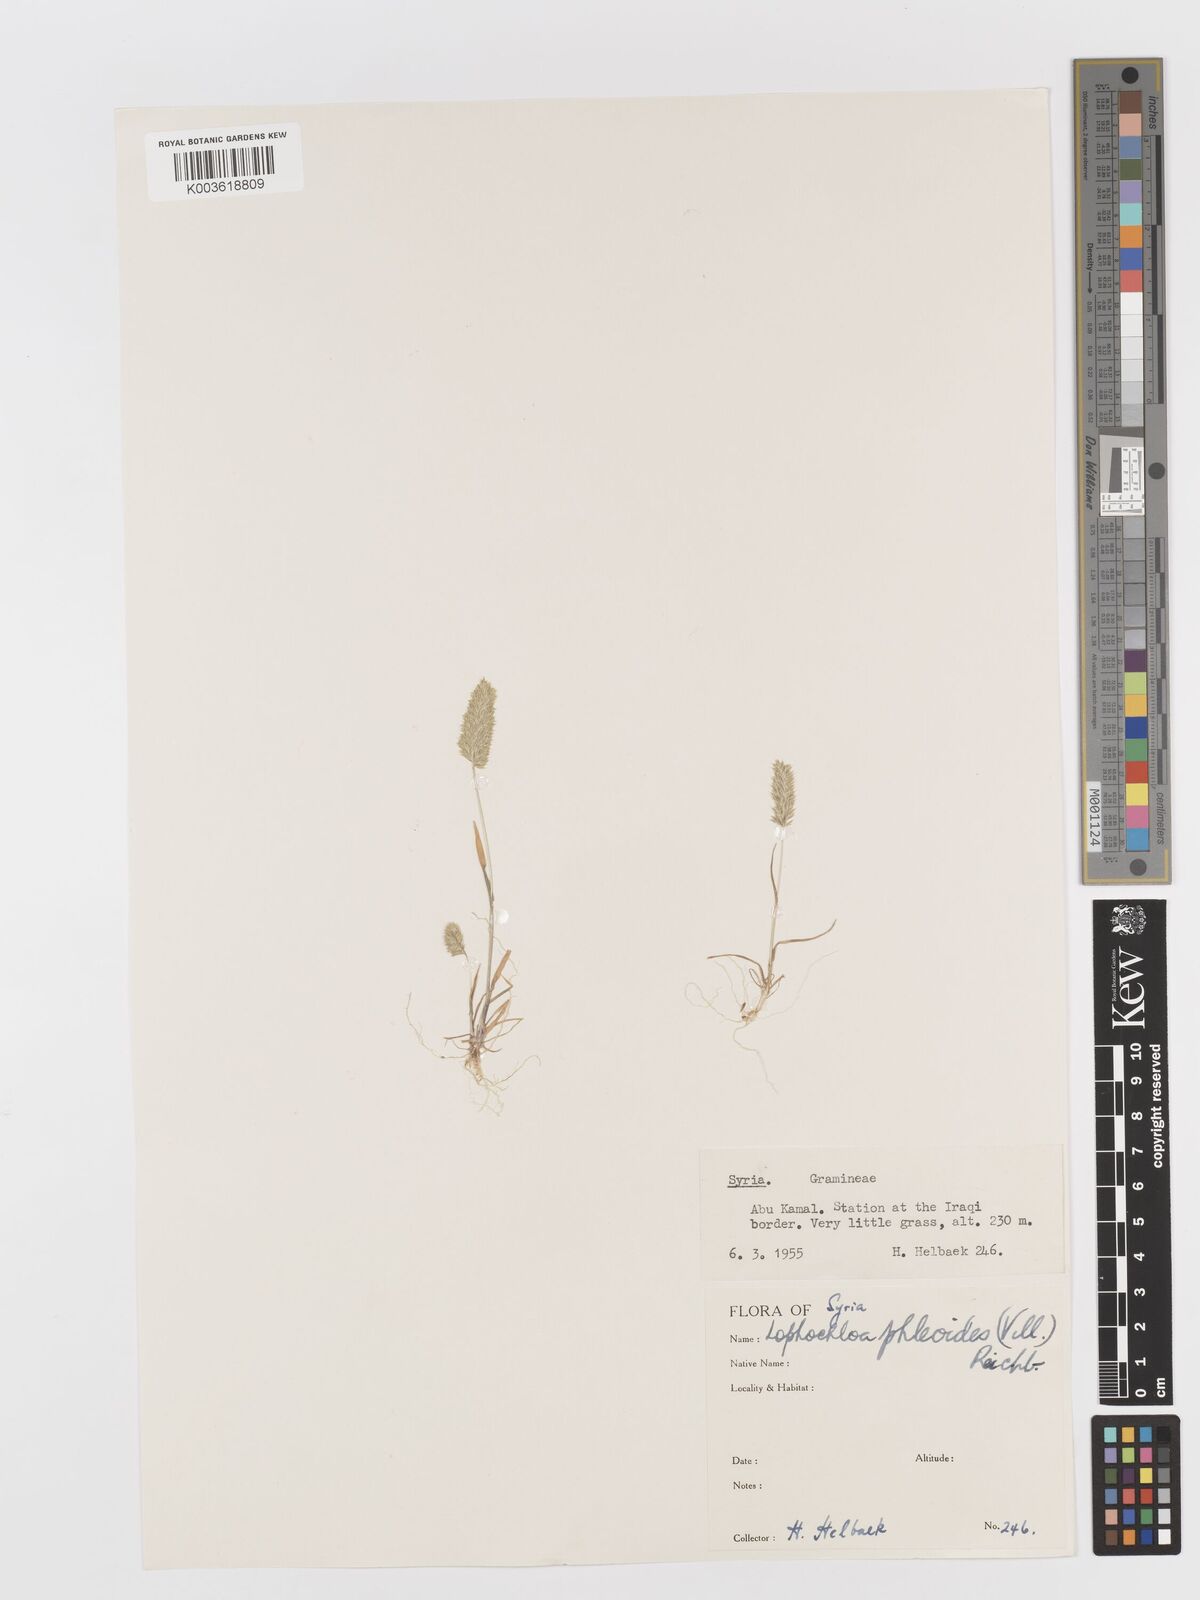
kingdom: Plantae
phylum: Tracheophyta
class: Liliopsida
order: Poales
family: Poaceae
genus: Rostraria
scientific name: Rostraria cristata
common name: Mediterranean hair-grass
